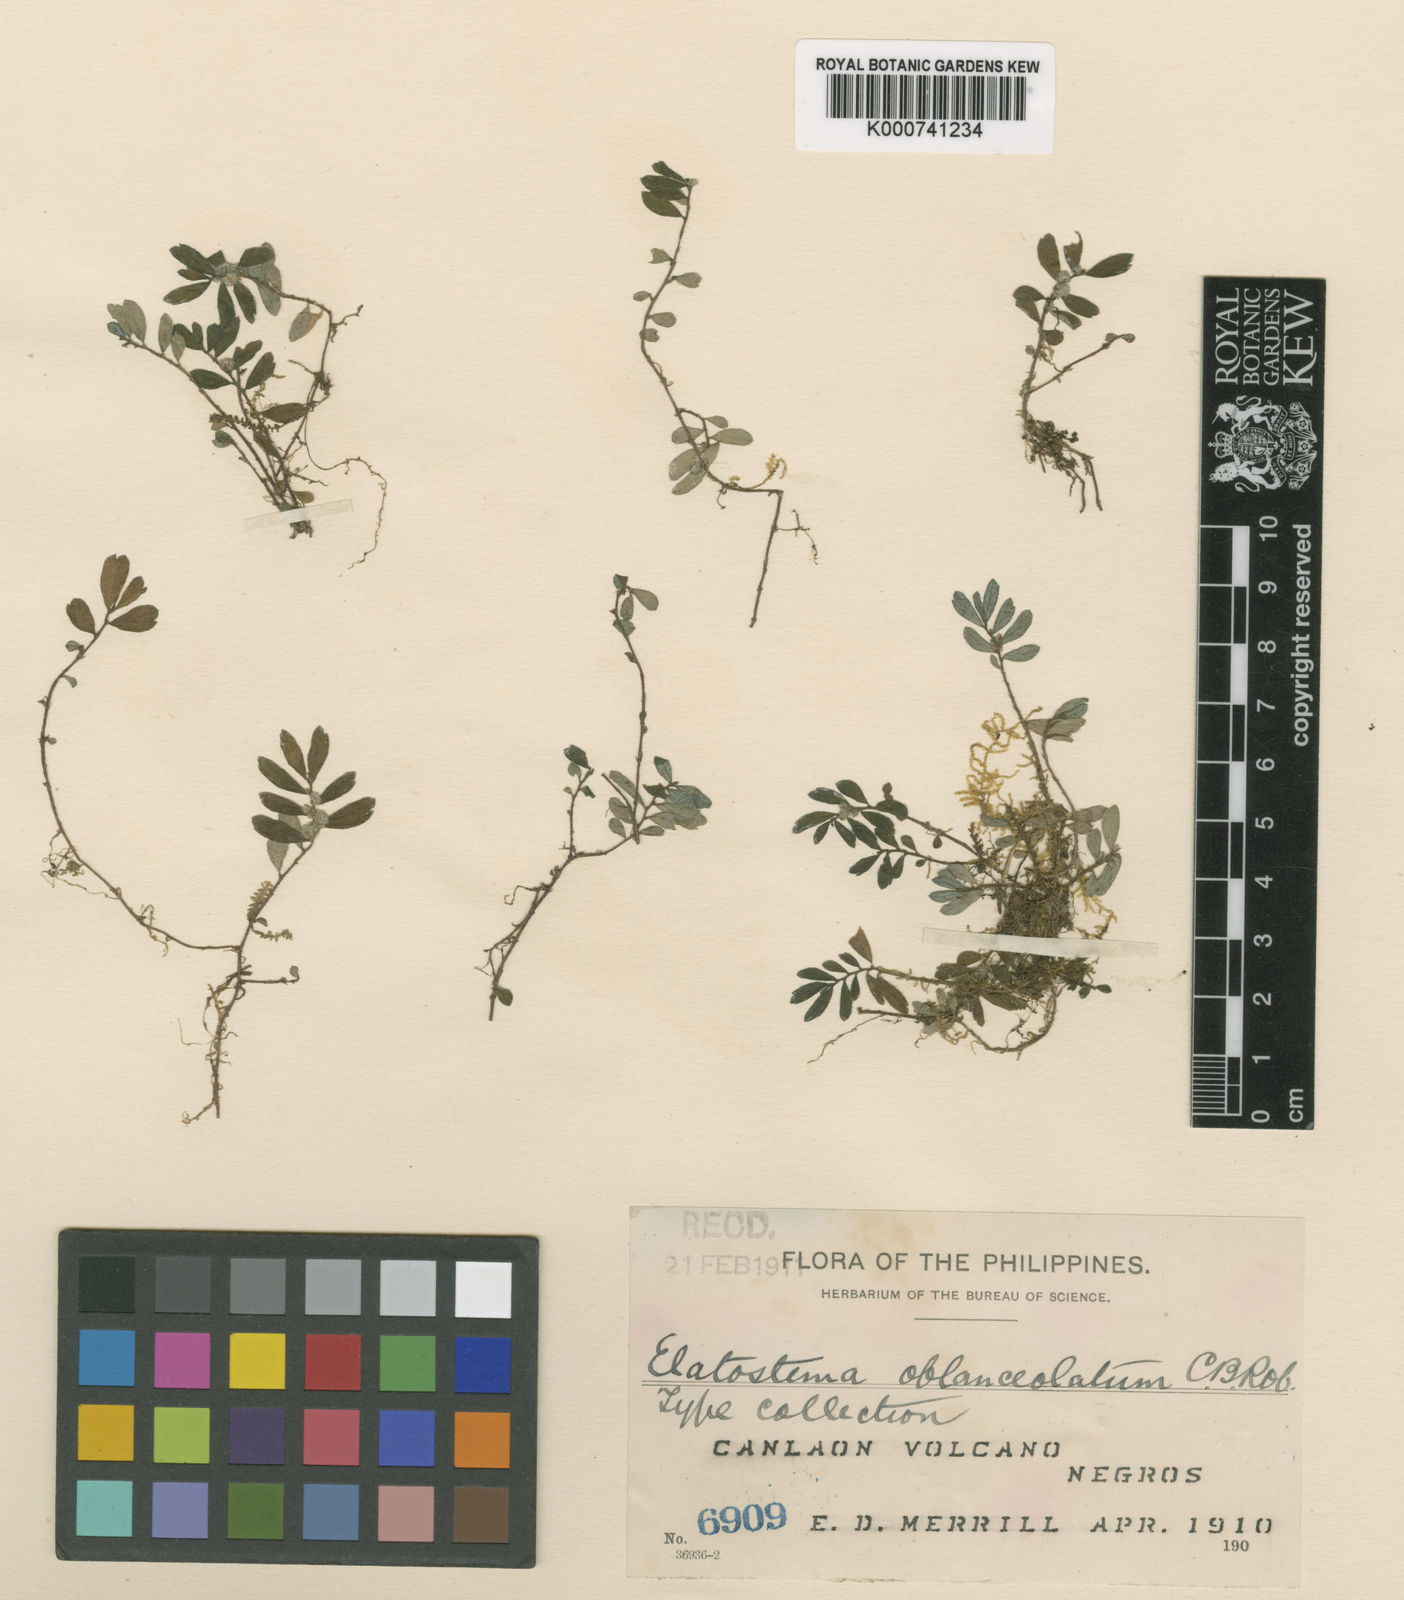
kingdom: Plantae
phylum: Tracheophyta
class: Magnoliopsida
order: Rosales
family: Urticaceae
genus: Elatostema
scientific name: Elatostema oblanceolatum
